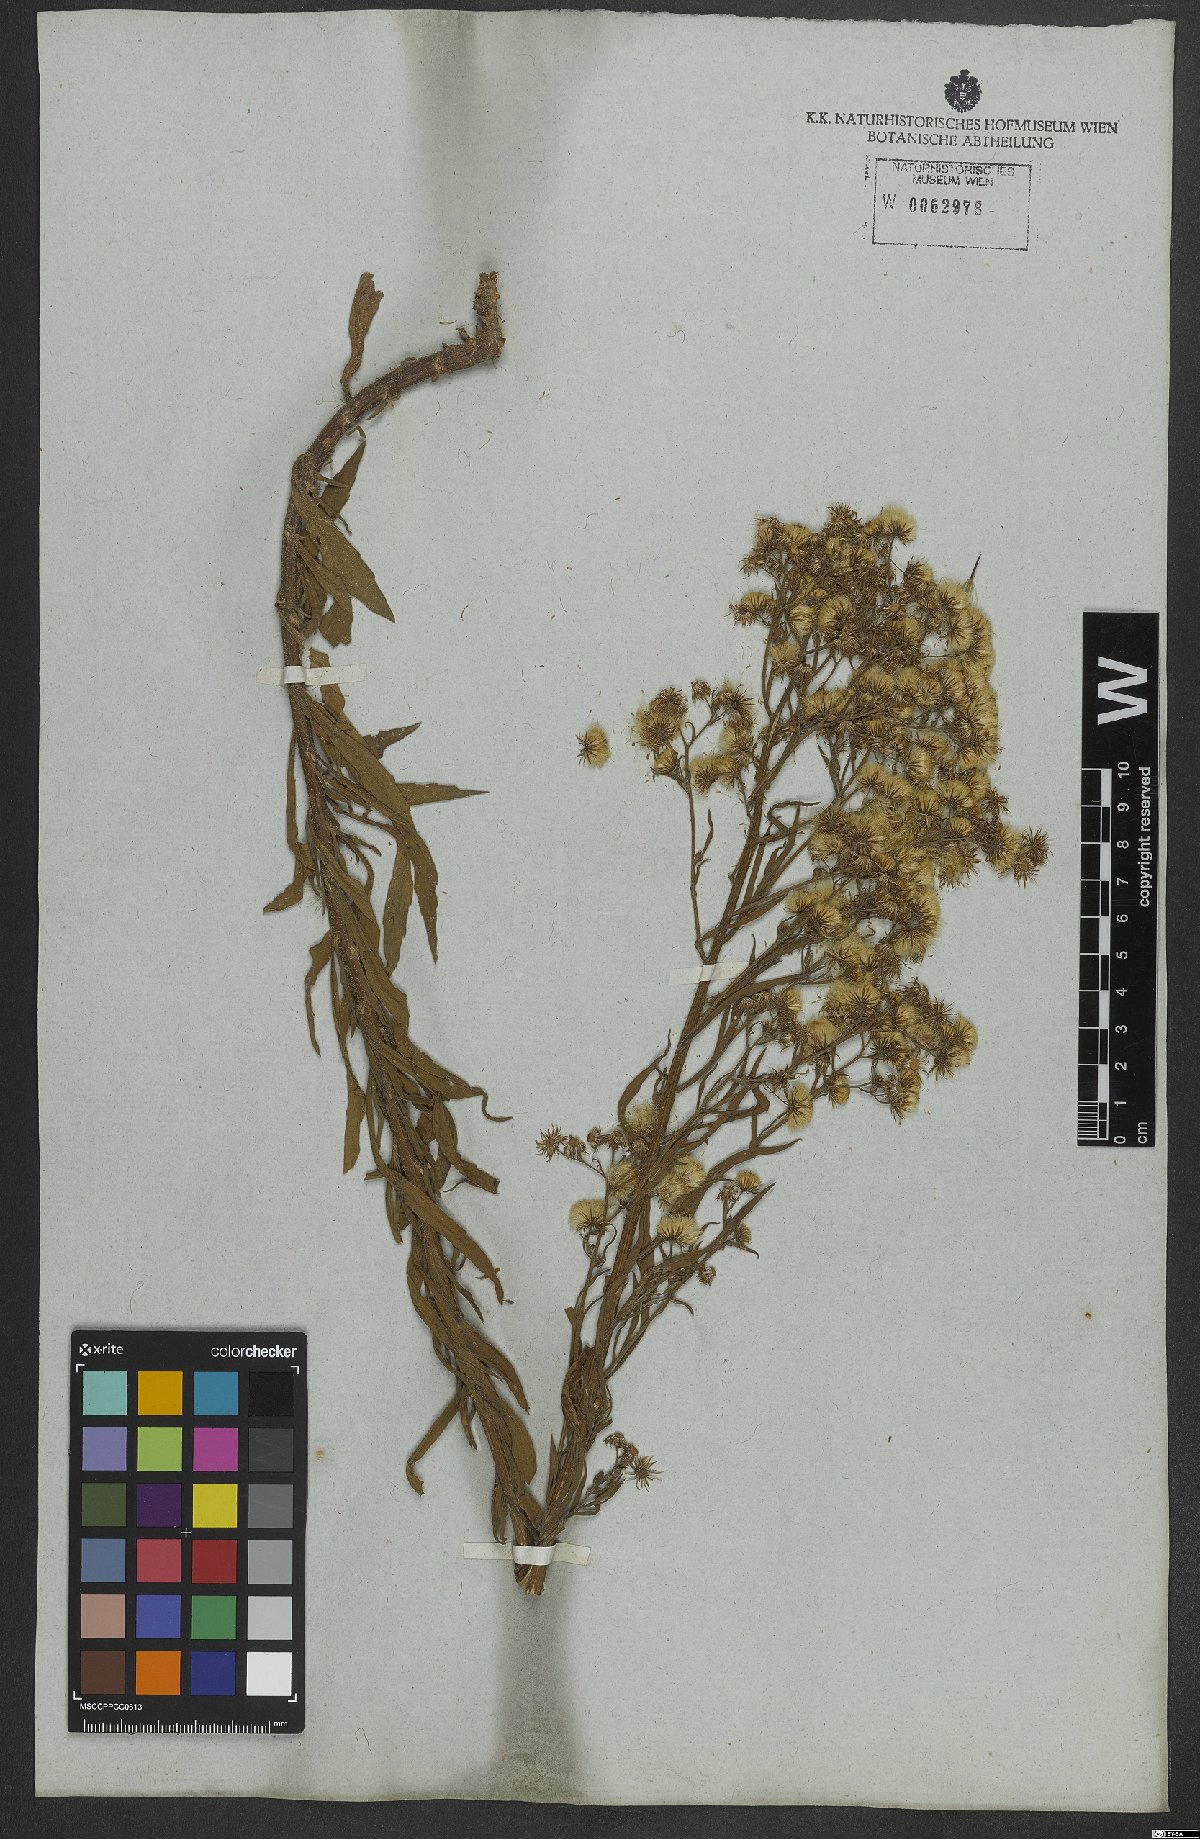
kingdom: Plantae
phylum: Tracheophyta
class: Magnoliopsida
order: Asterales
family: Asteraceae
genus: Erigeron
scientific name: Erigeron bonariensis
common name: Argentine fleabane
